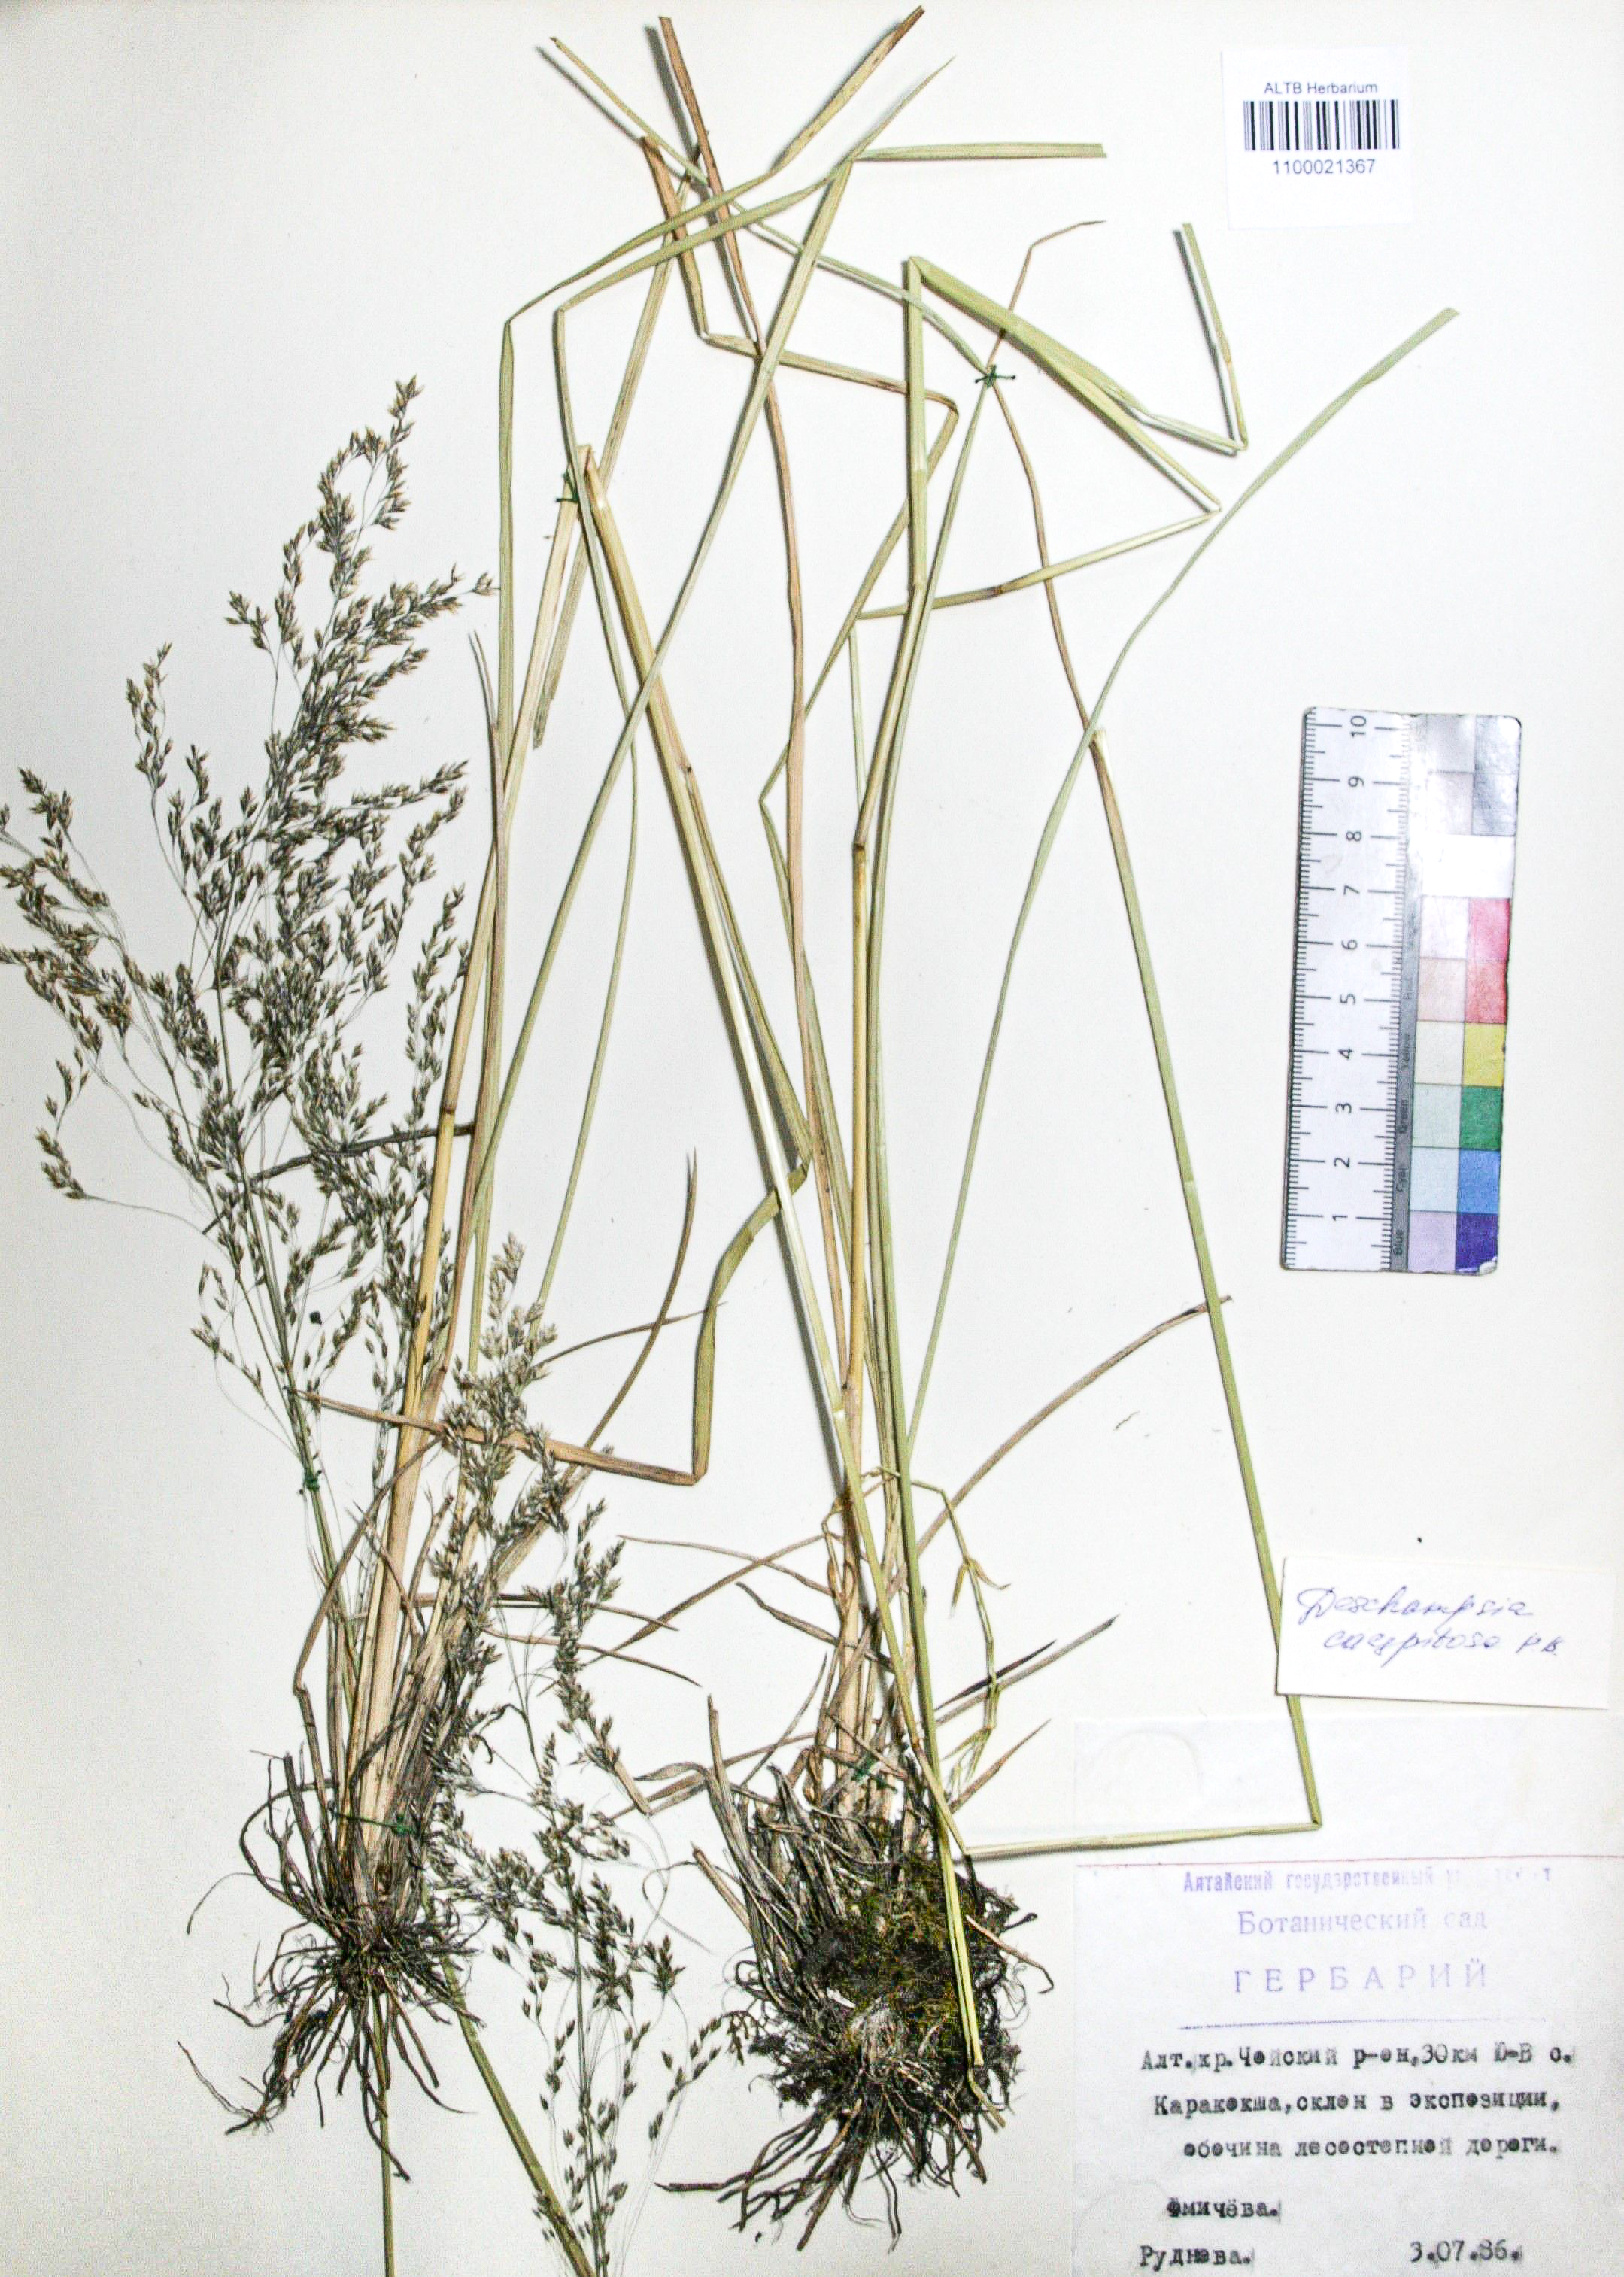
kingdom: Plantae
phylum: Tracheophyta
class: Liliopsida
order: Poales
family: Poaceae
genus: Deschampsia
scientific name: Deschampsia cespitosa
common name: Tufted hair-grass
